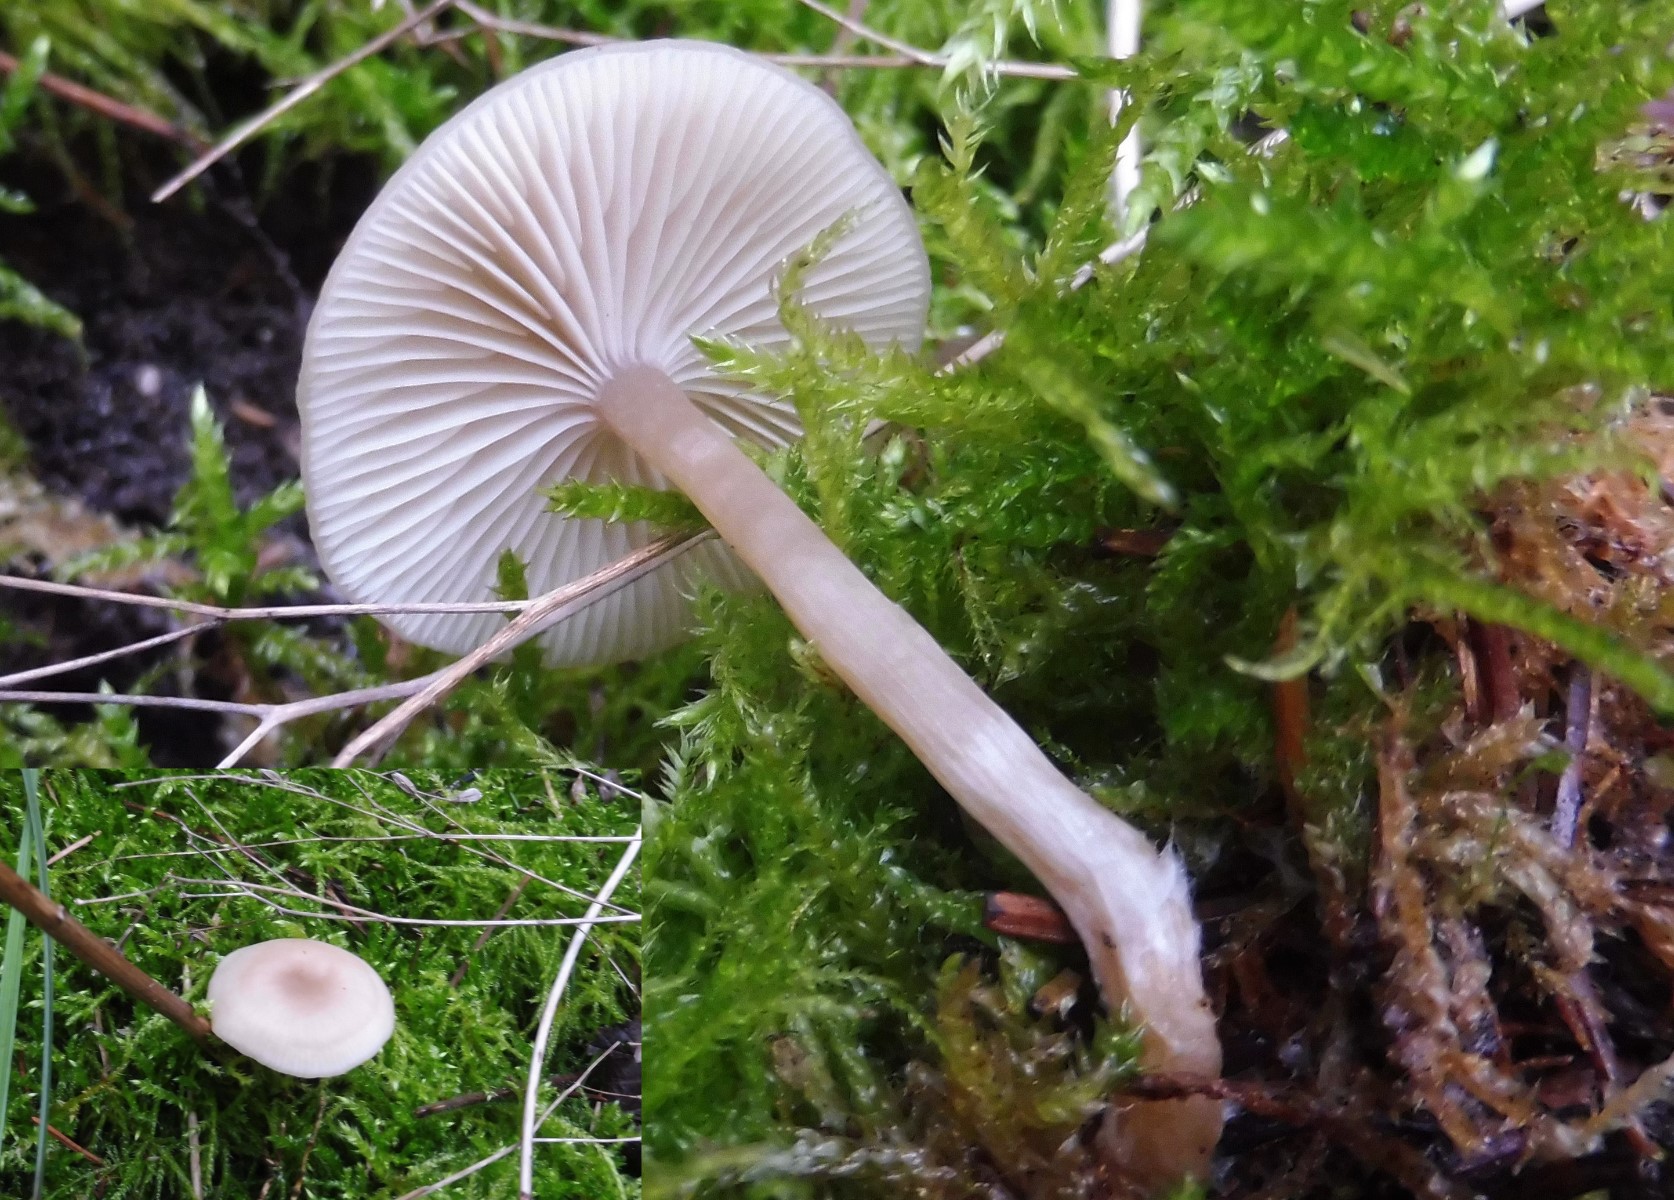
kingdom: Fungi
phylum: Basidiomycota
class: Agaricomycetes
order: Agaricales
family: Tricholomataceae
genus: Clitocybe
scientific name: Clitocybe fragrans
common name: vellugtende tragthat
